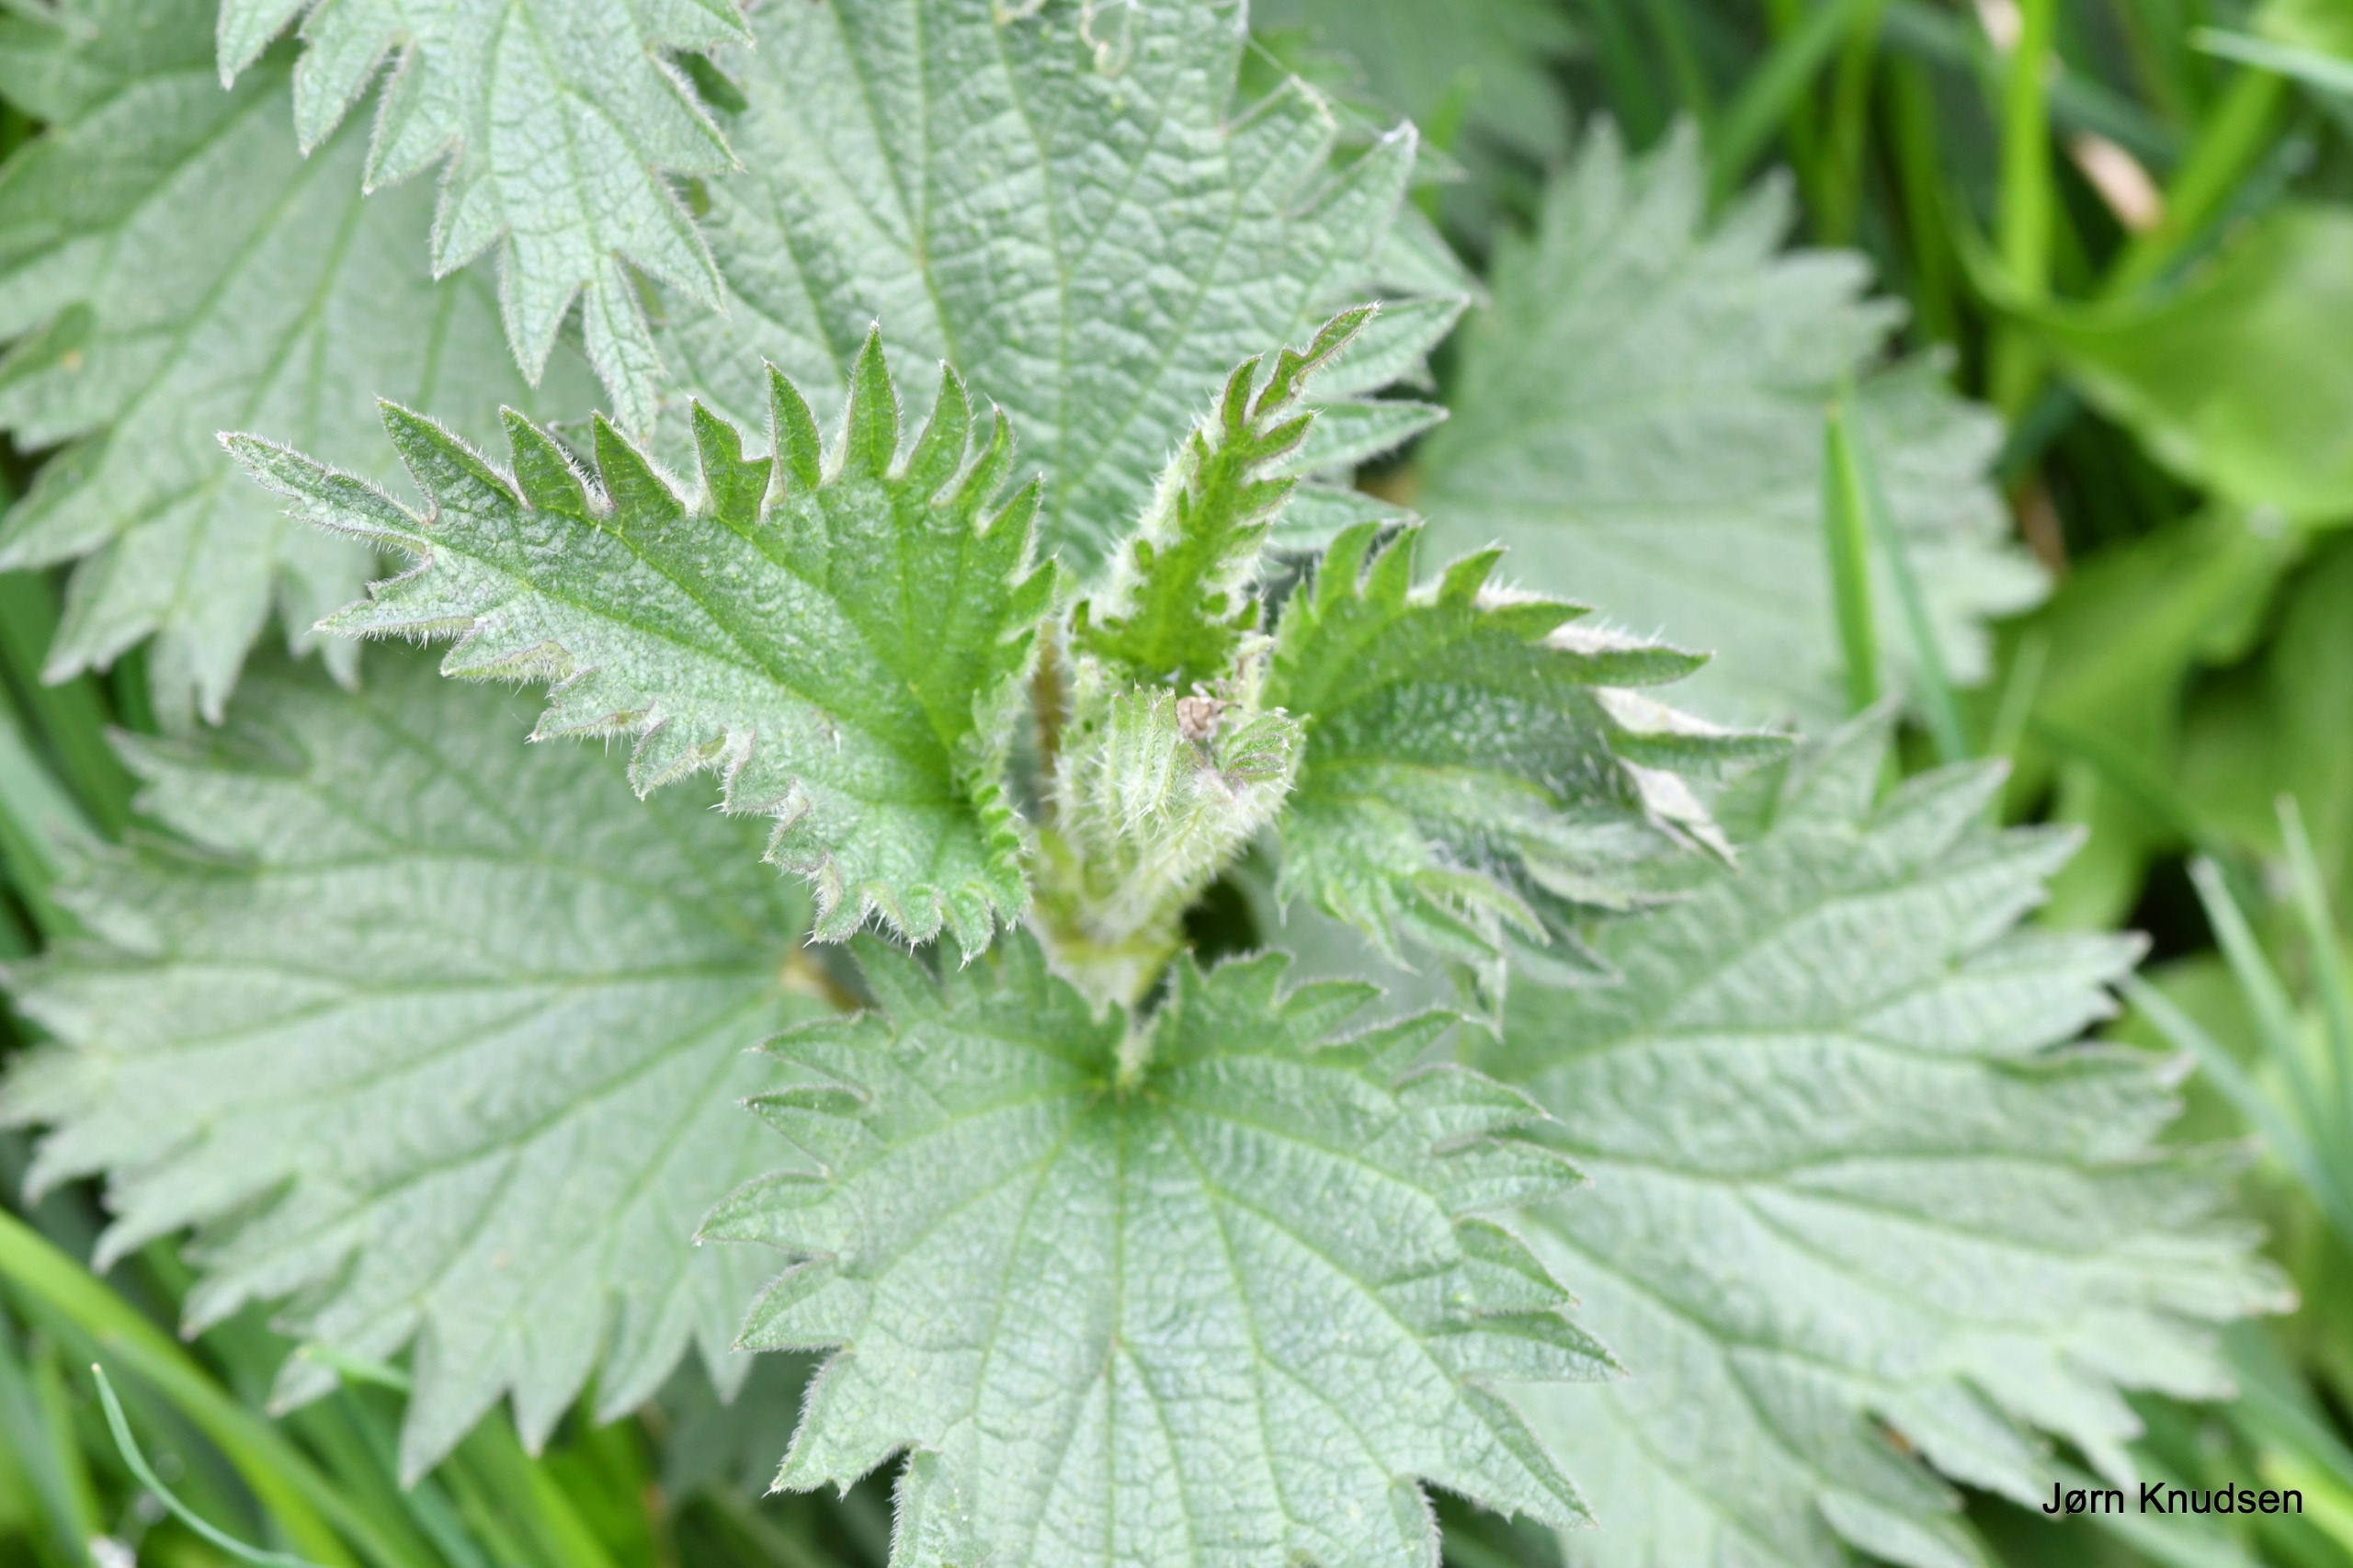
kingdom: Plantae
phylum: Tracheophyta
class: Magnoliopsida
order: Rosales
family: Urticaceae
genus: Urtica
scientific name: Urtica dioica
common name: Stor nælde
